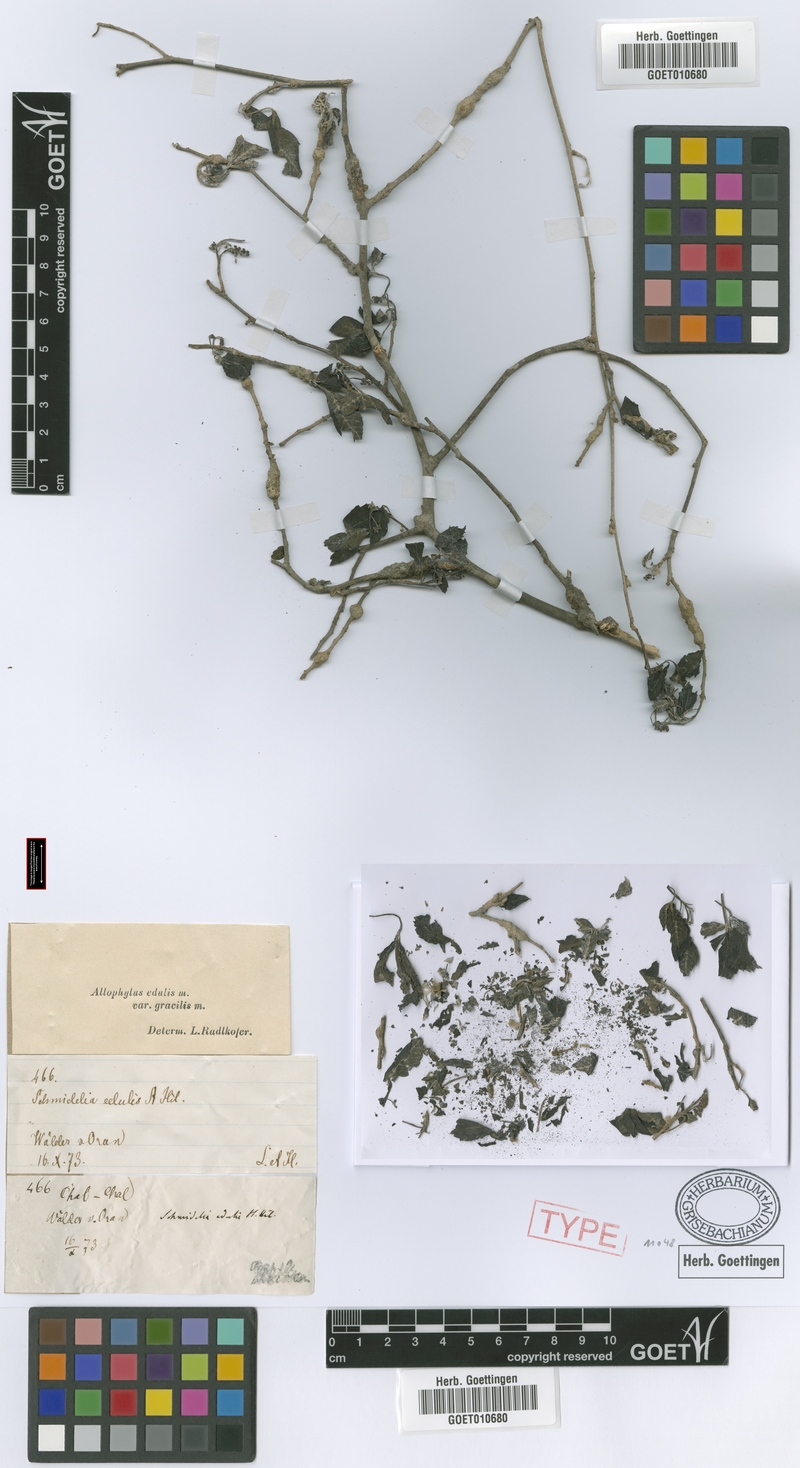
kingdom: Plantae
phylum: Tracheophyta
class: Magnoliopsida
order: Sapindales
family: Sapindaceae
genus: Allophylus
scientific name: Allophylus edulis
